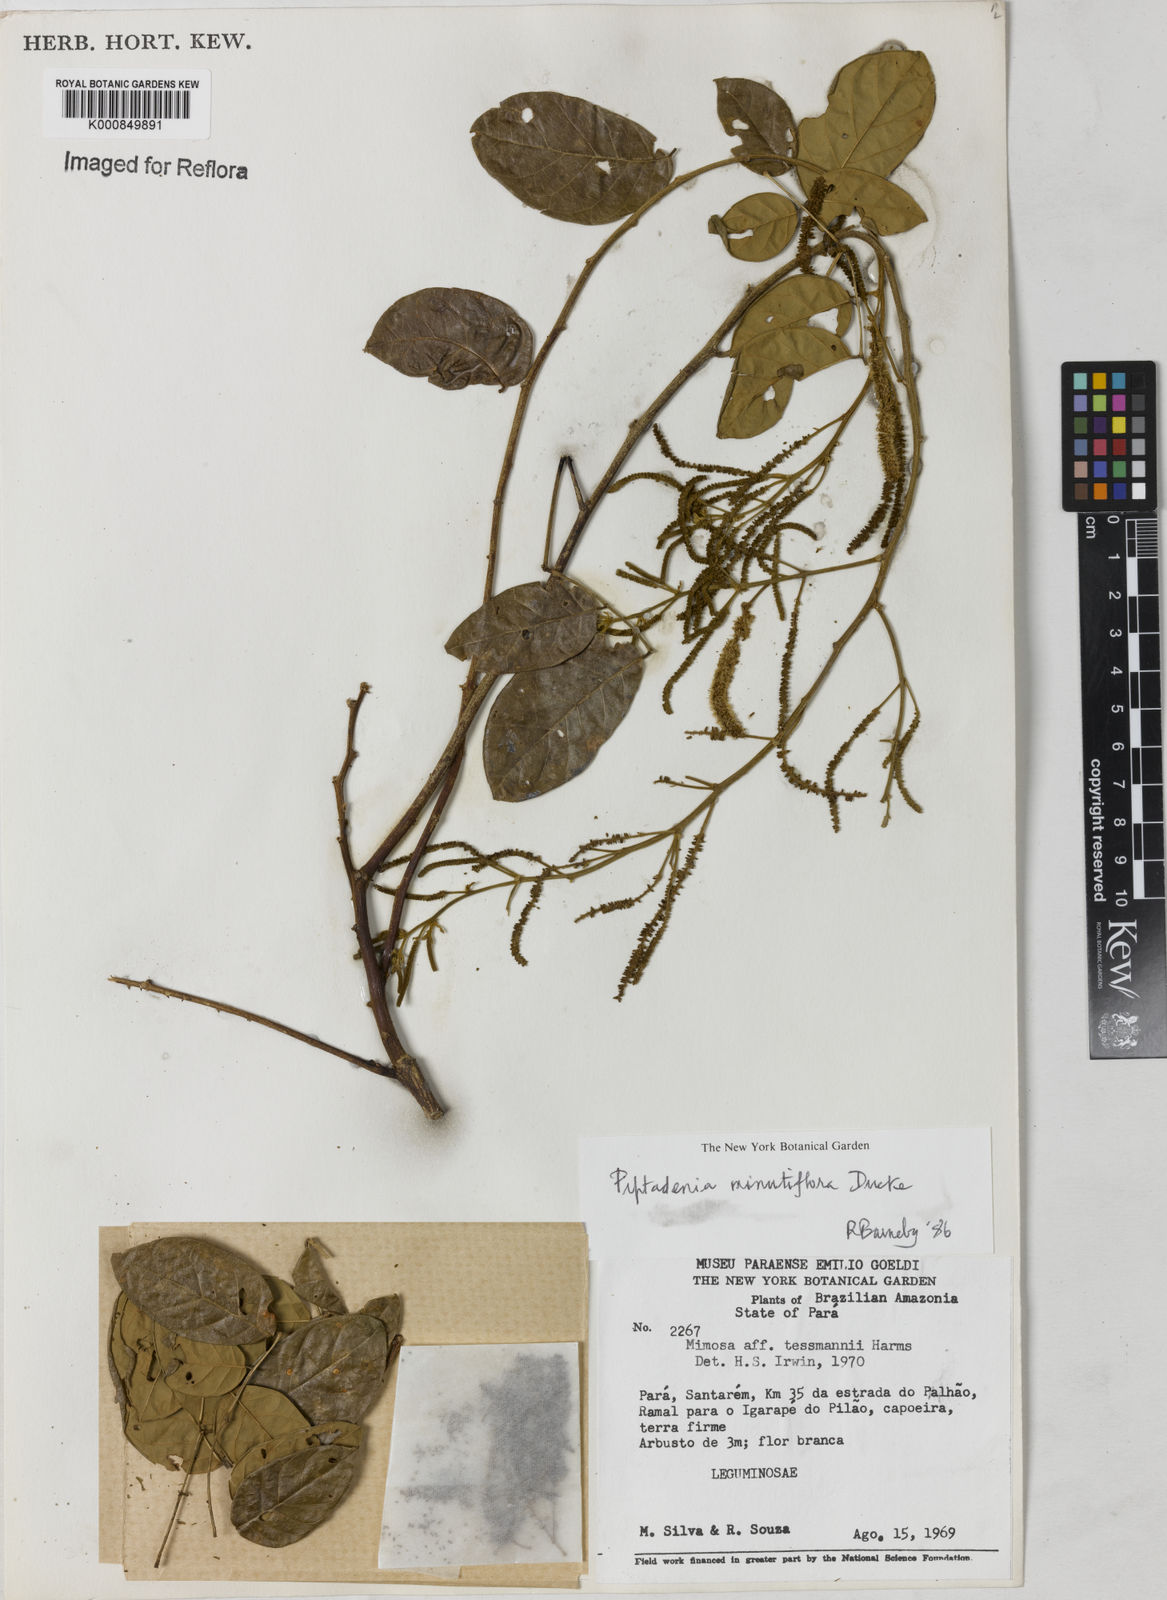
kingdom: Plantae
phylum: Tracheophyta
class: Magnoliopsida
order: Fabales
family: Fabaceae
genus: Piptadenia
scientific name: Piptadenia minutiflora
